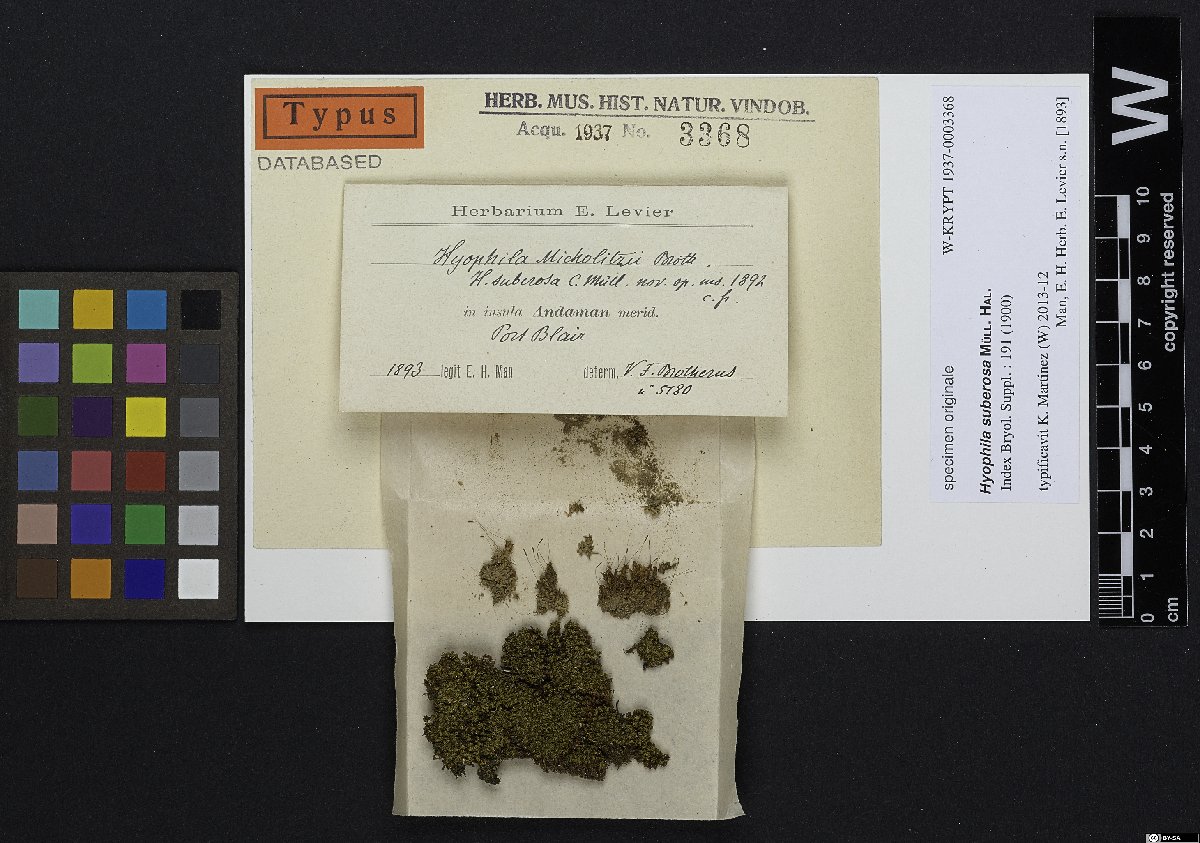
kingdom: Plantae
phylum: Bryophyta
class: Bryopsida
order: Pottiales
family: Pottiaceae
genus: Hyophila
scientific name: Hyophila
